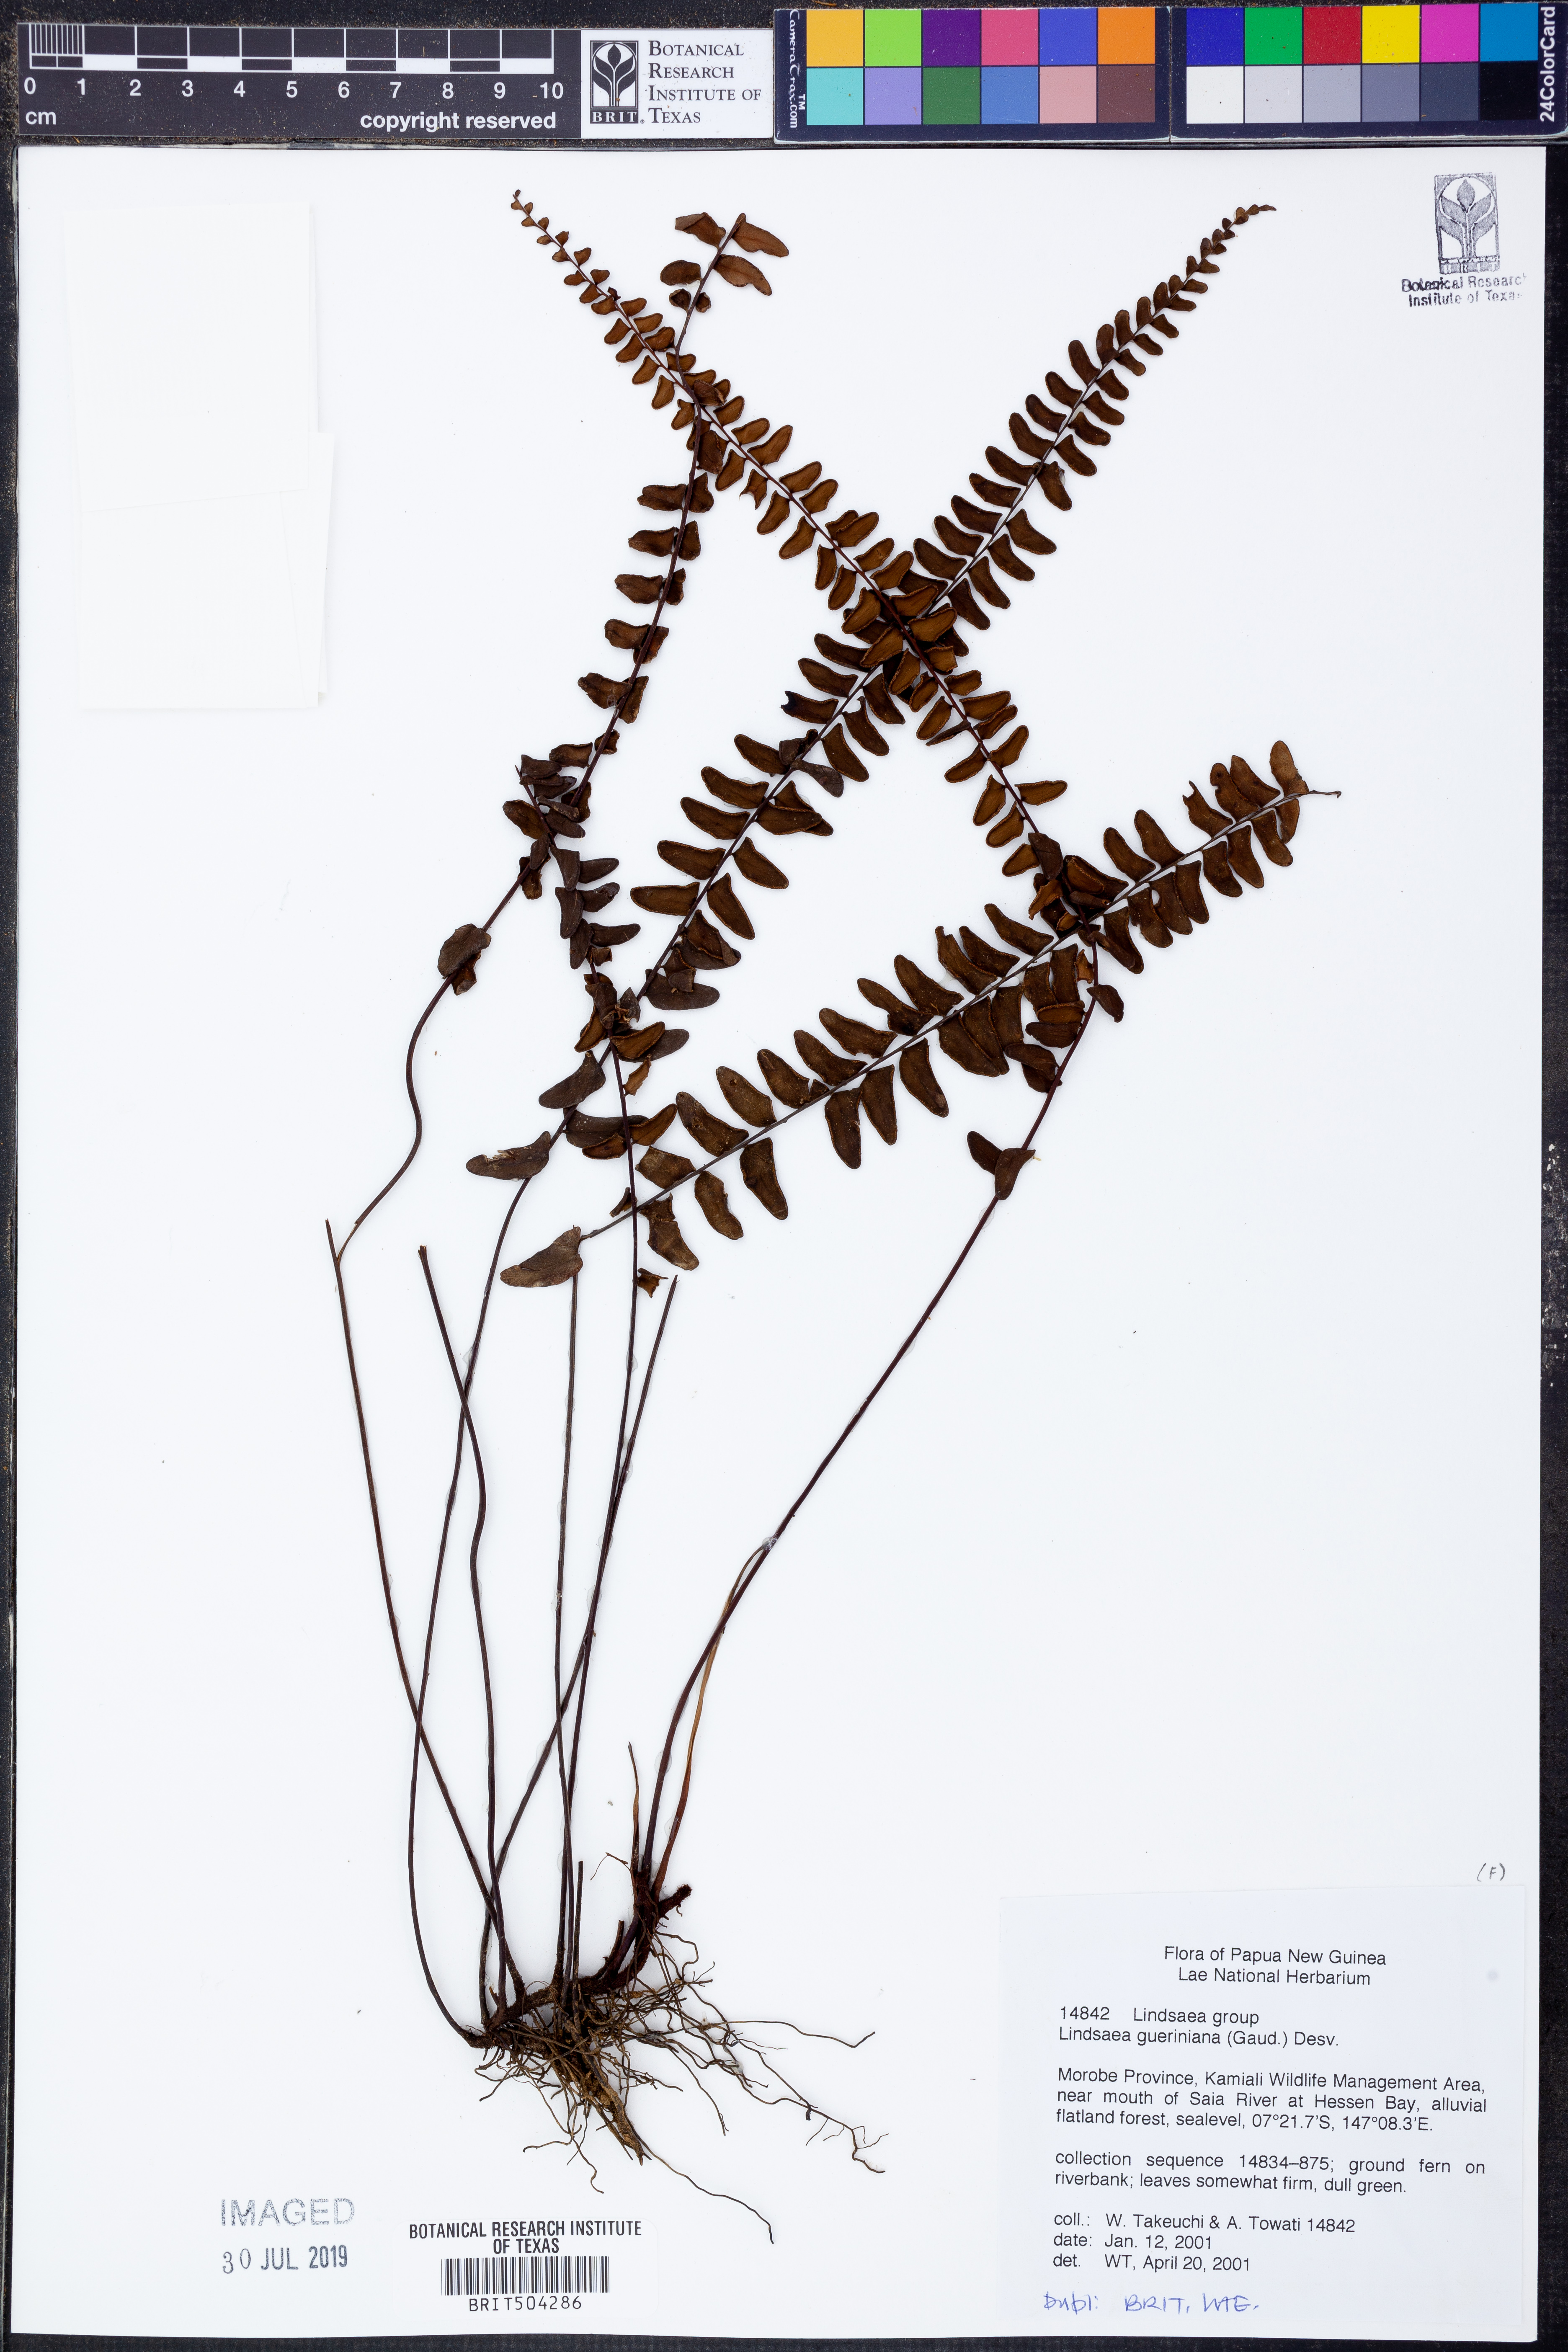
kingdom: Plantae
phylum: Tracheophyta
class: Polypodiopsida
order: Polypodiales
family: Lindsaeaceae
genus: Lindsaea
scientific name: Lindsaea gueriniana
